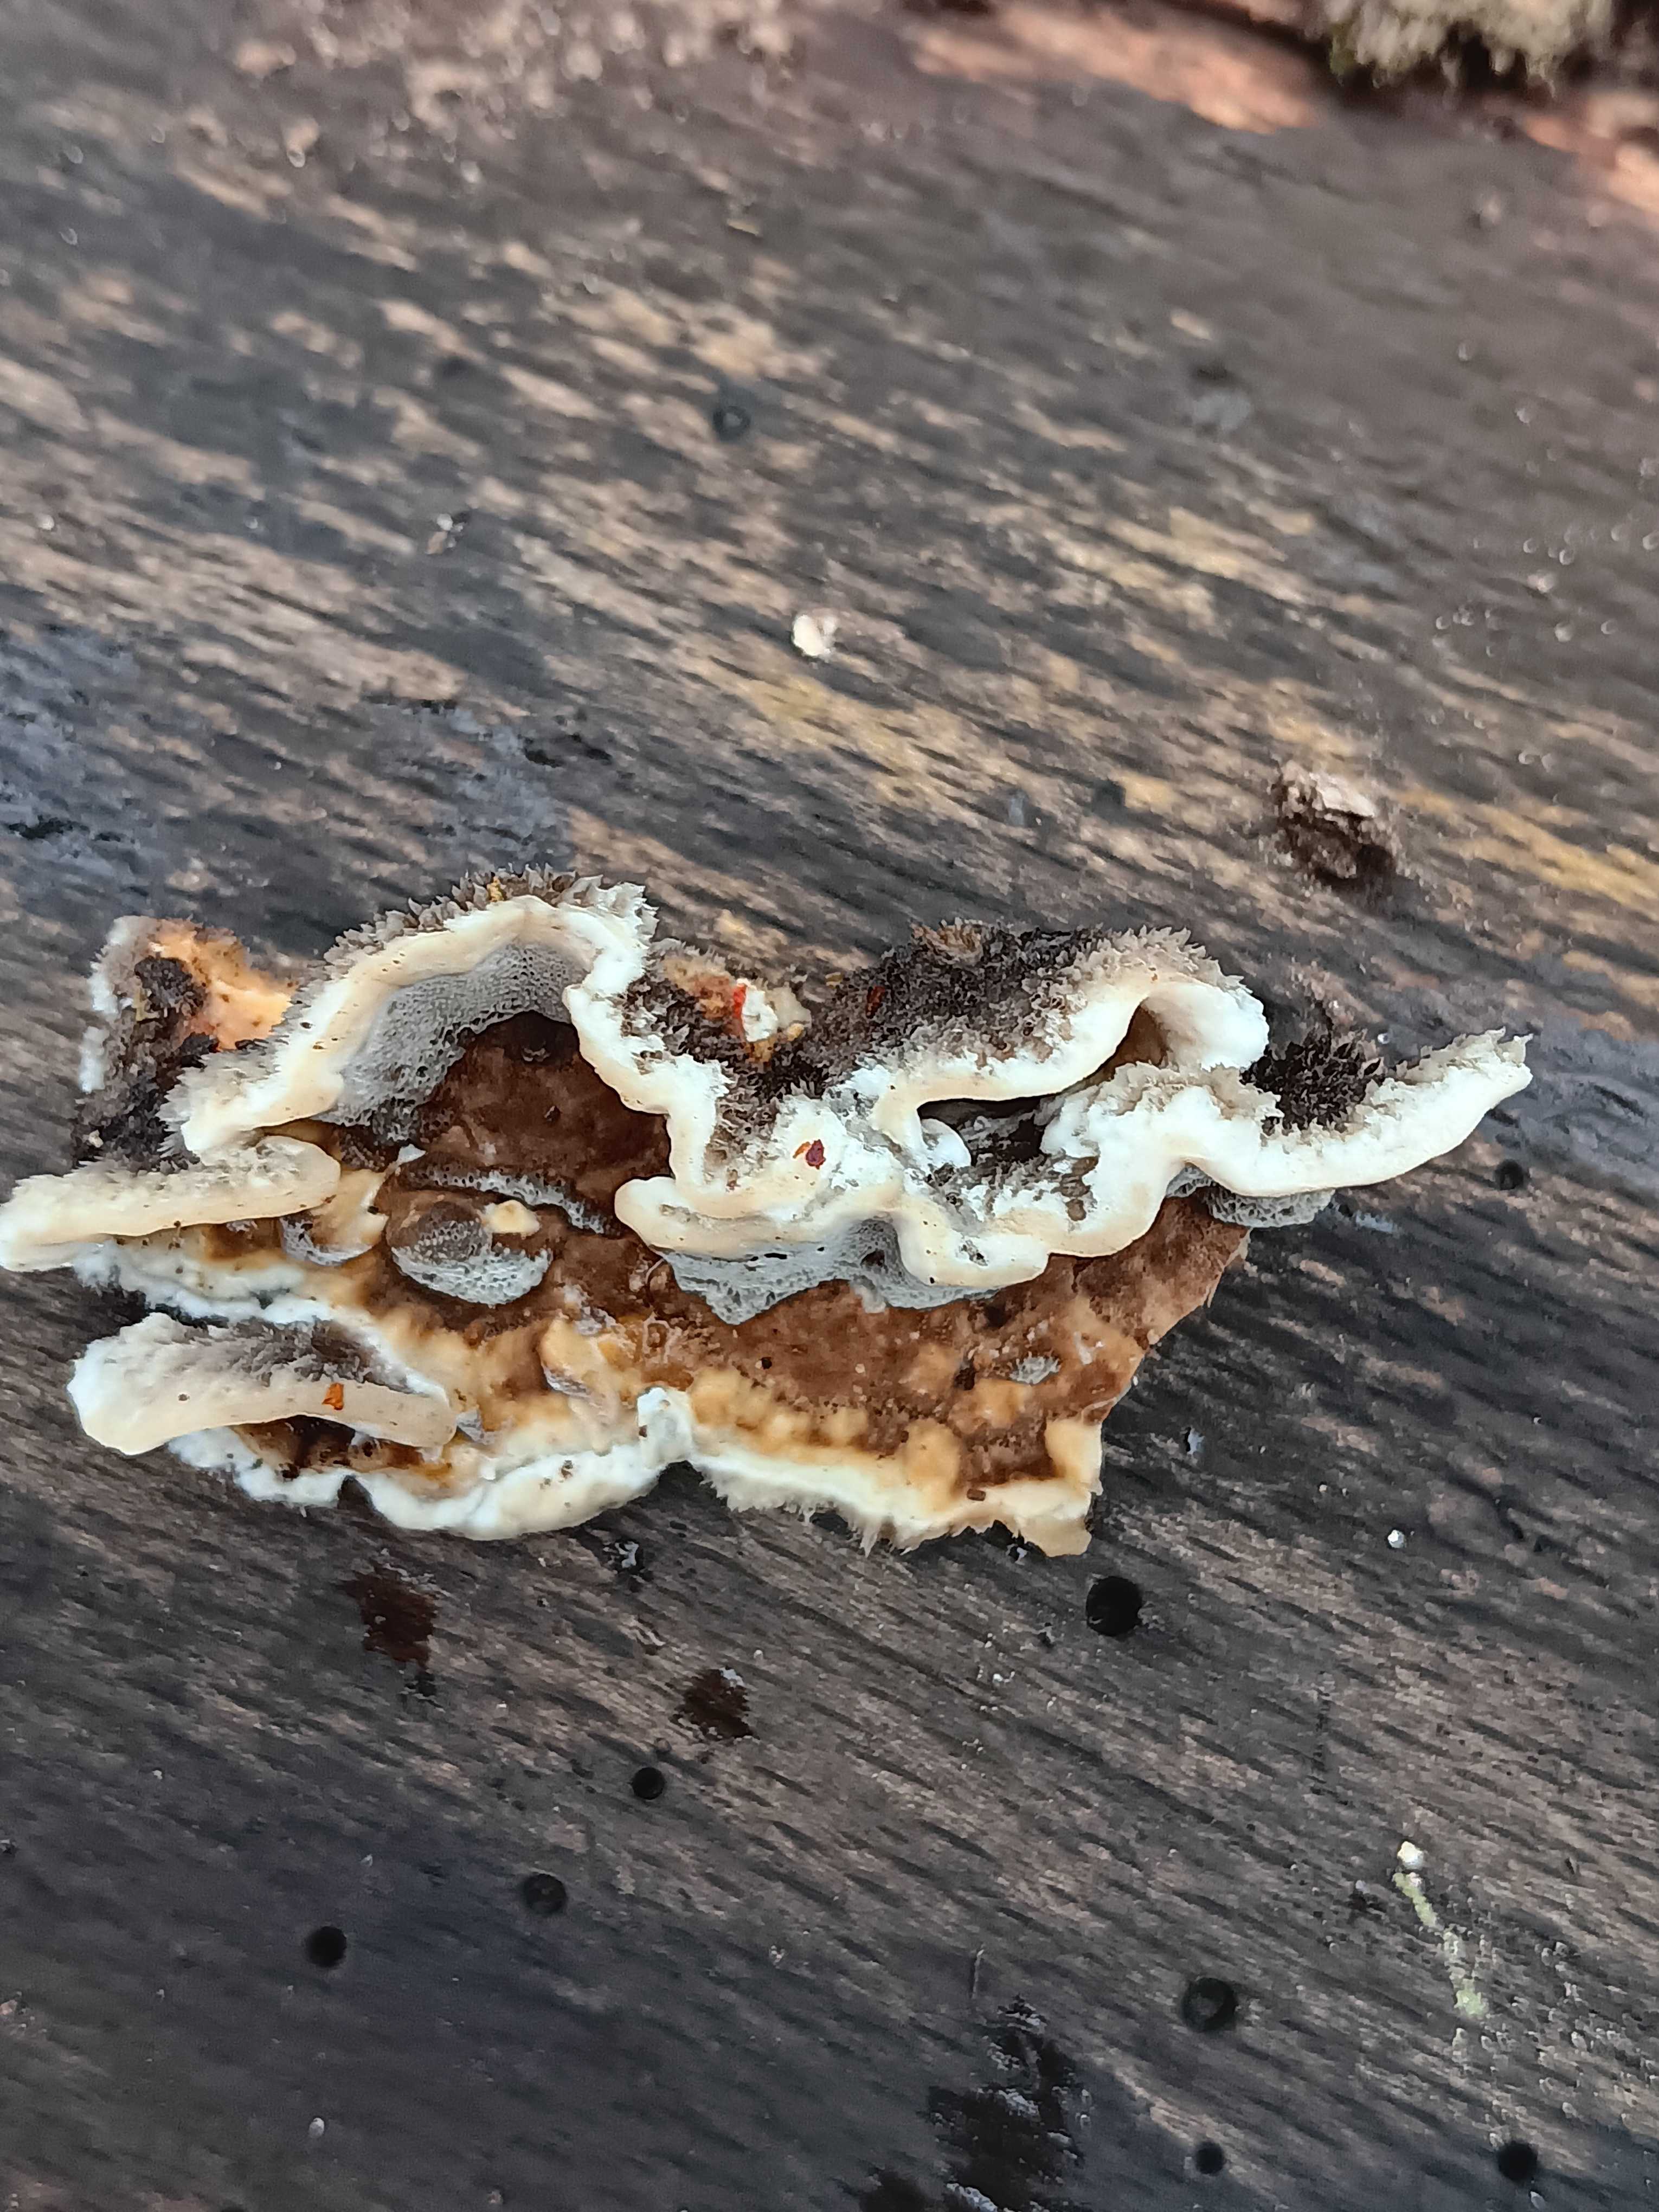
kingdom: Fungi
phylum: Basidiomycota
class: Agaricomycetes
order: Polyporales
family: Phanerochaetaceae
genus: Bjerkandera
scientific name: Bjerkandera adusta
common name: sveden sodporesvamp
